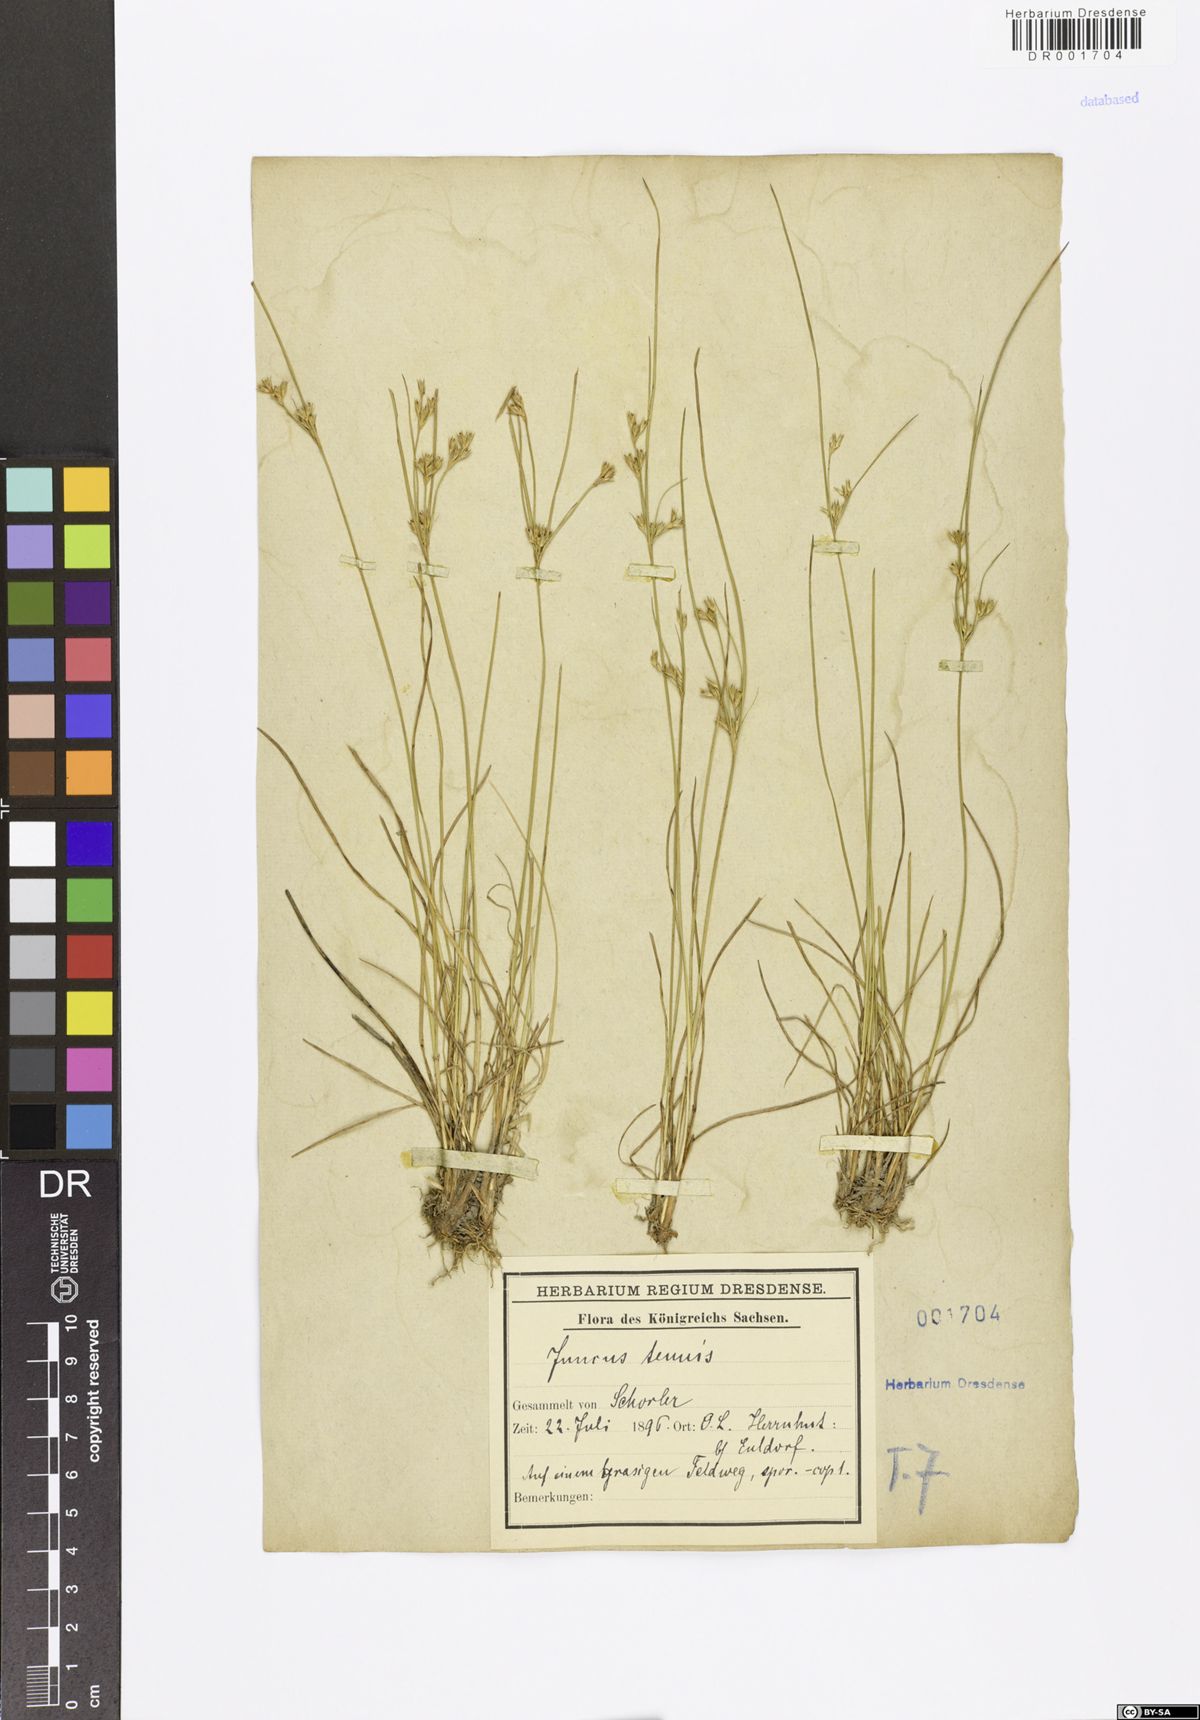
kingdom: Plantae
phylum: Tracheophyta
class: Liliopsida
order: Poales
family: Juncaceae
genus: Juncus
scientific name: Juncus tenuis
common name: Slender rush
